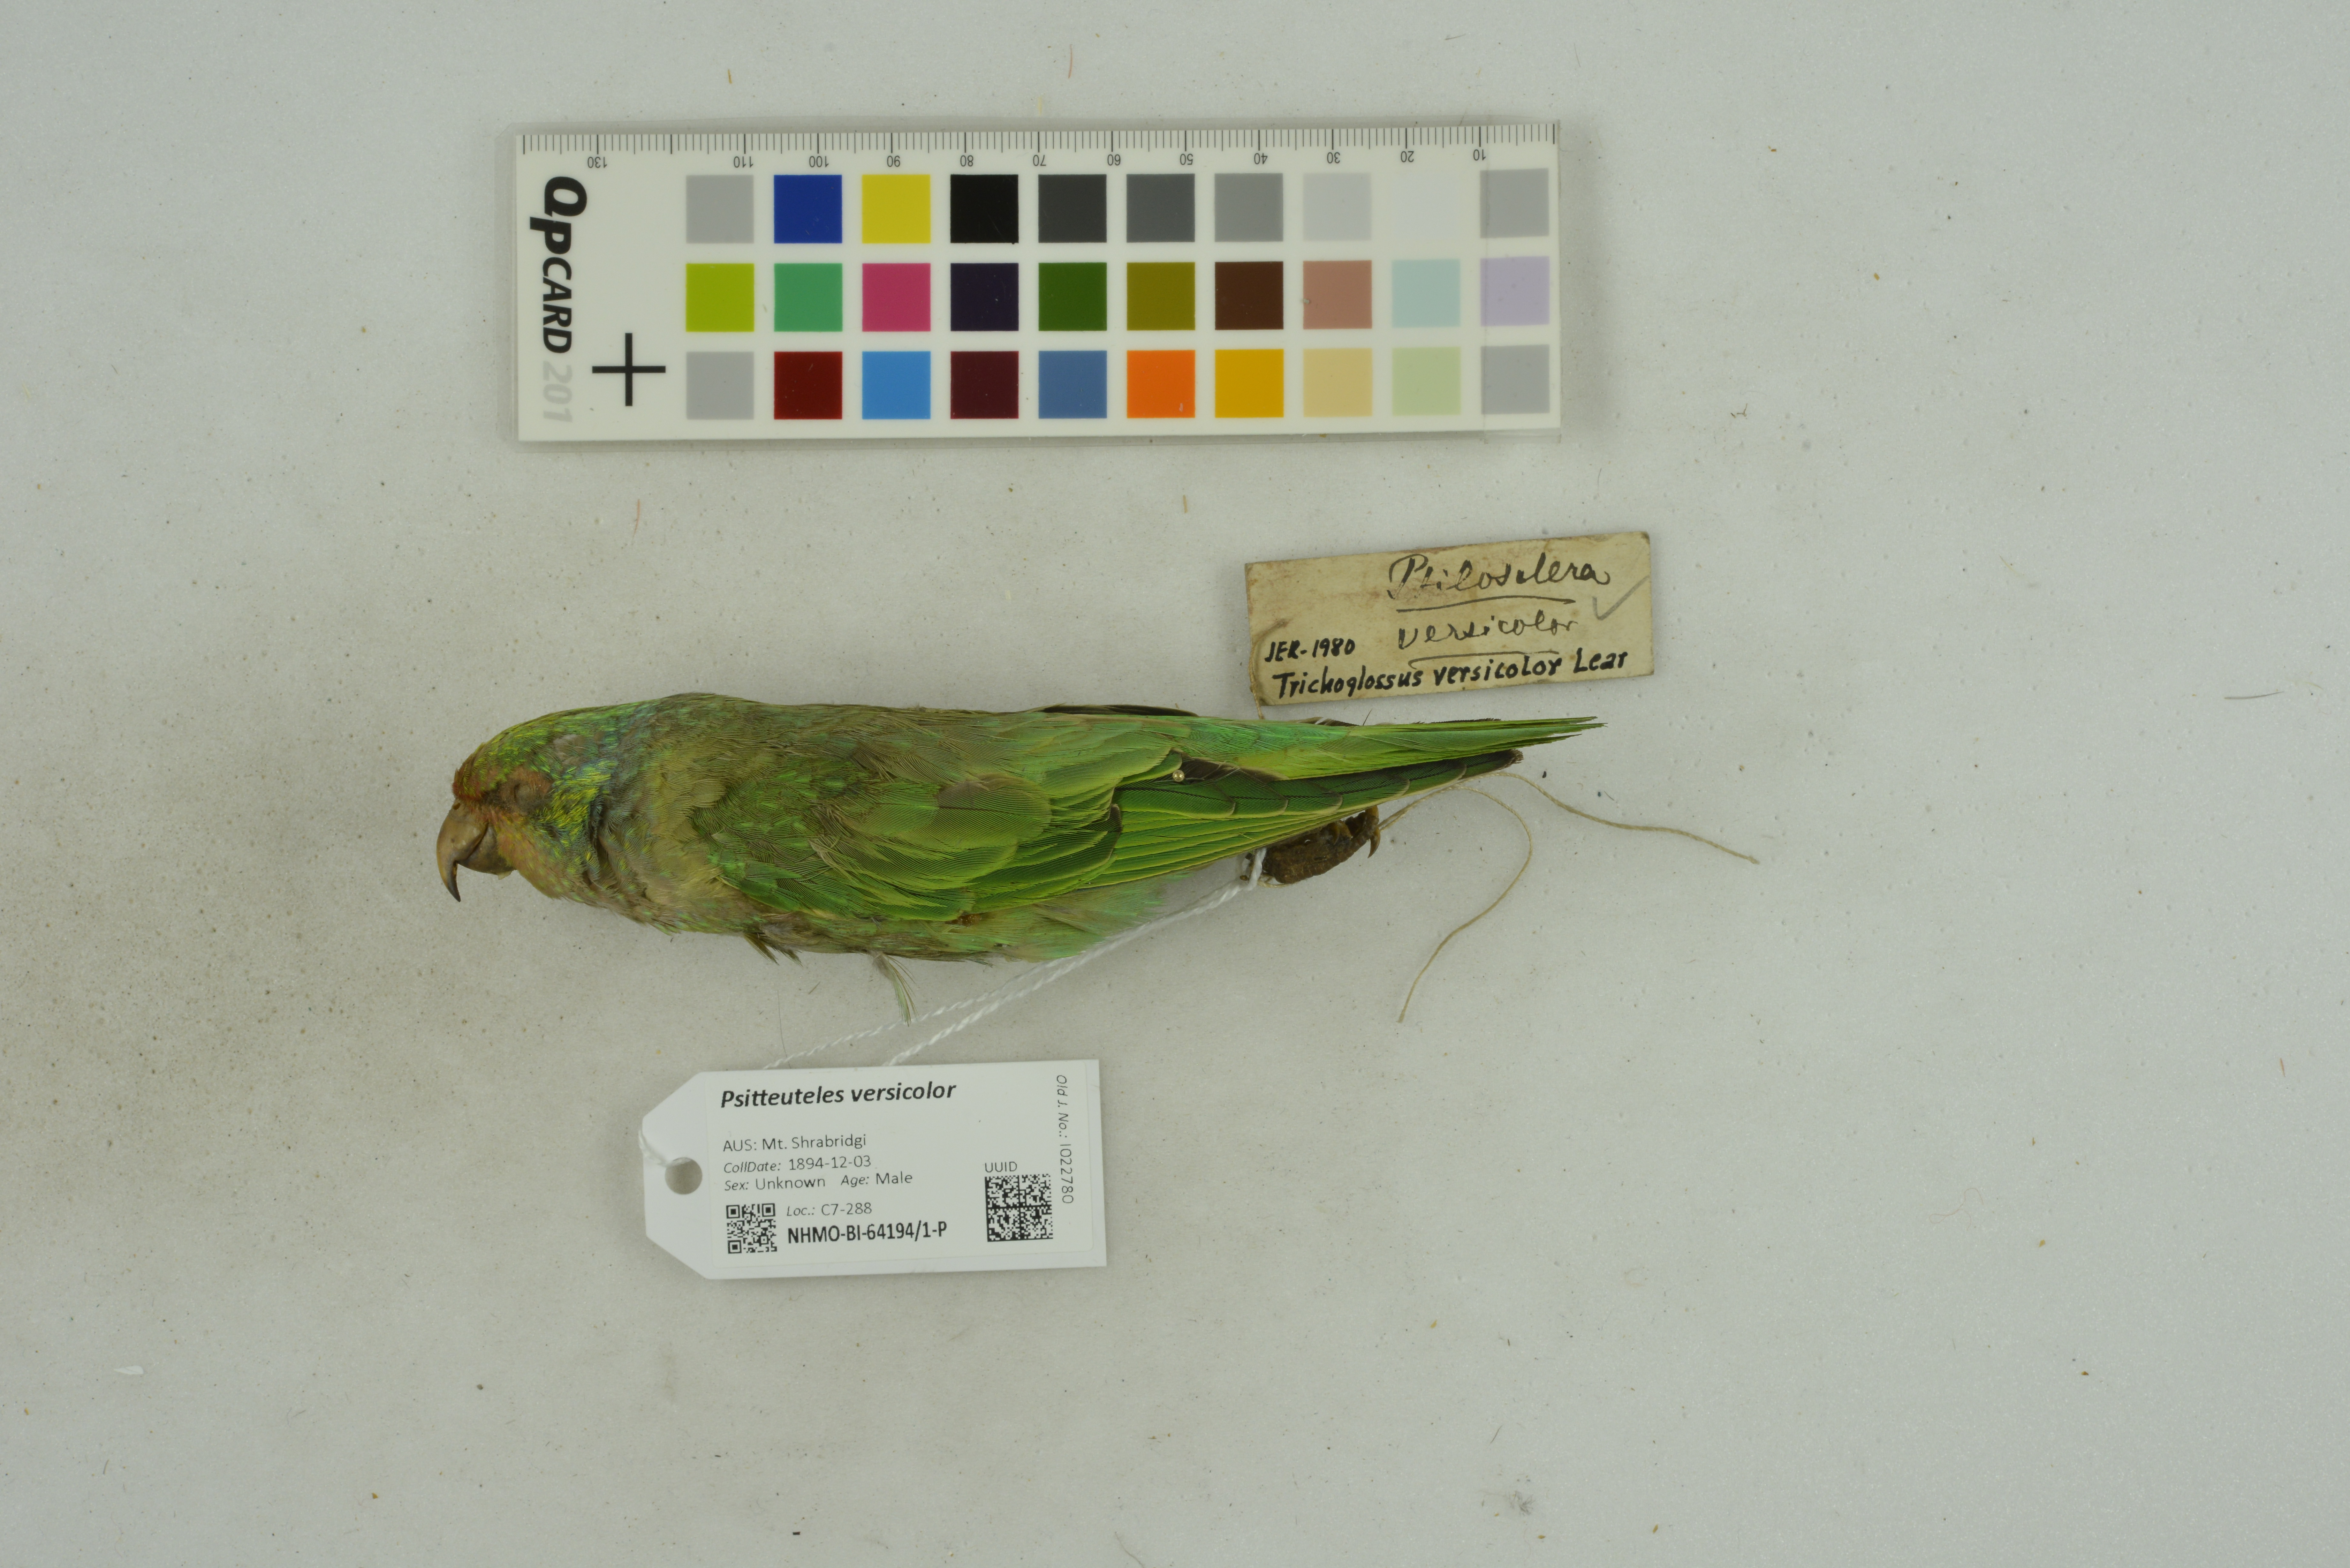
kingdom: Animalia
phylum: Chordata
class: Aves
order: Psittaciformes
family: Psittacidae
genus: Psitteuteles
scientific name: Psitteuteles versicolor
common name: Varied lorikeet
